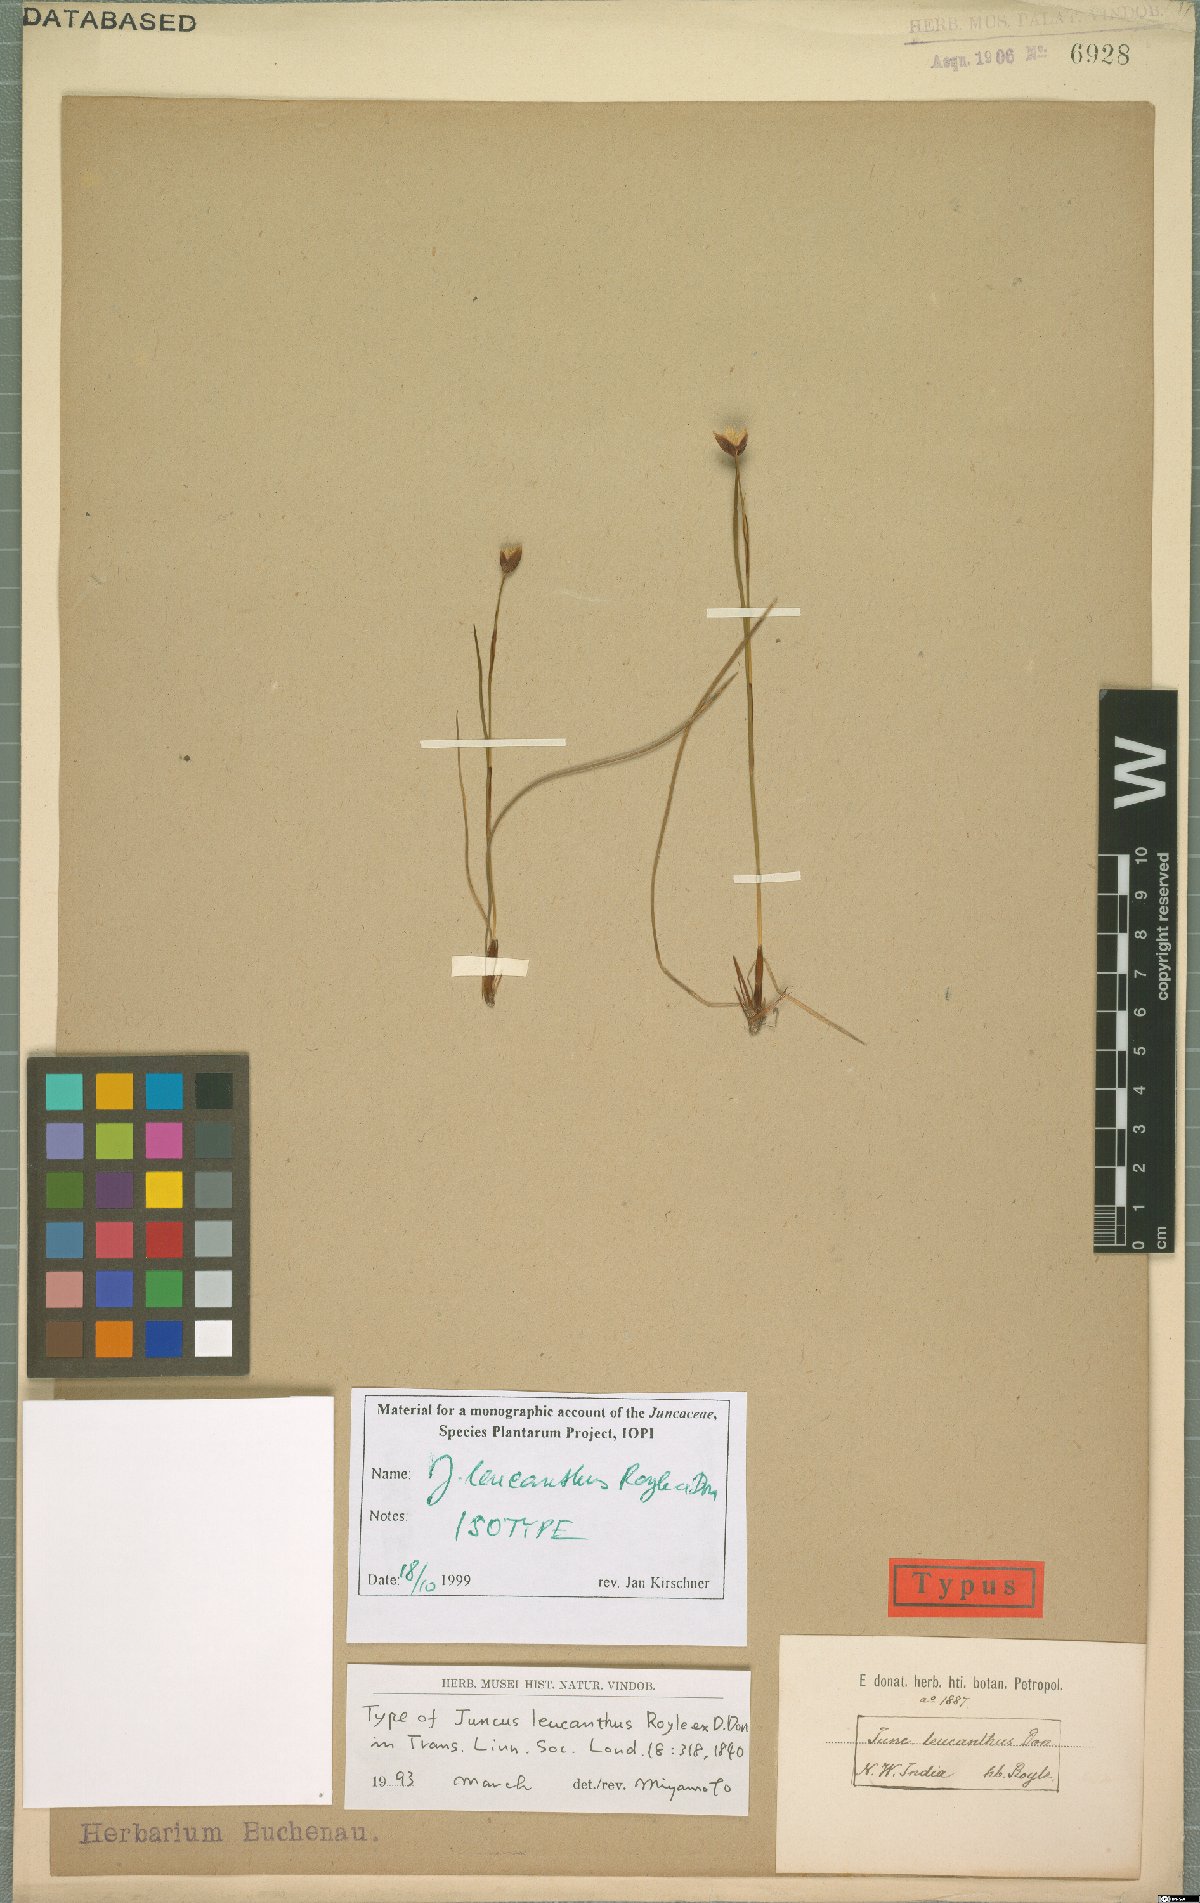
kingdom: Plantae
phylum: Tracheophyta
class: Liliopsida
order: Poales
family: Juncaceae
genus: Juncus
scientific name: Juncus leucanthus
